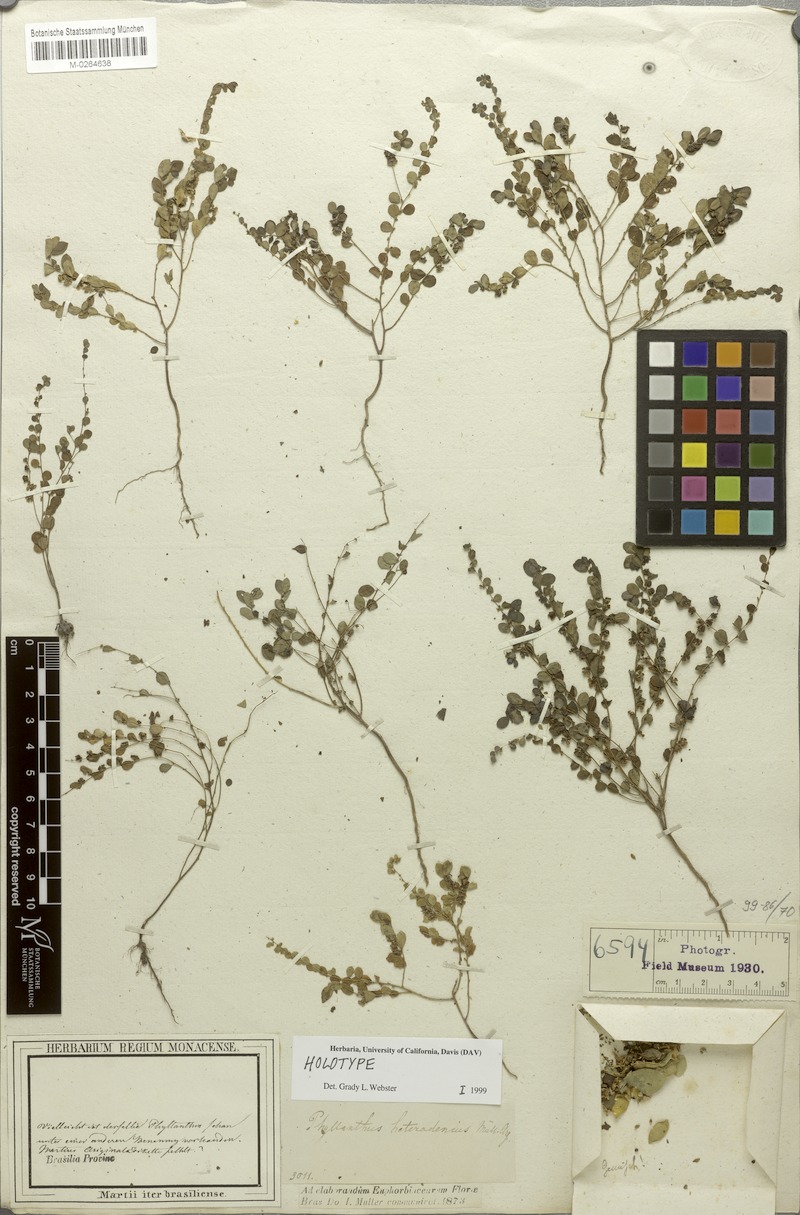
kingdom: Plantae
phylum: Tracheophyta
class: Magnoliopsida
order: Malpighiales
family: Phyllanthaceae
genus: Phyllanthus
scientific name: Phyllanthus heteradenius
